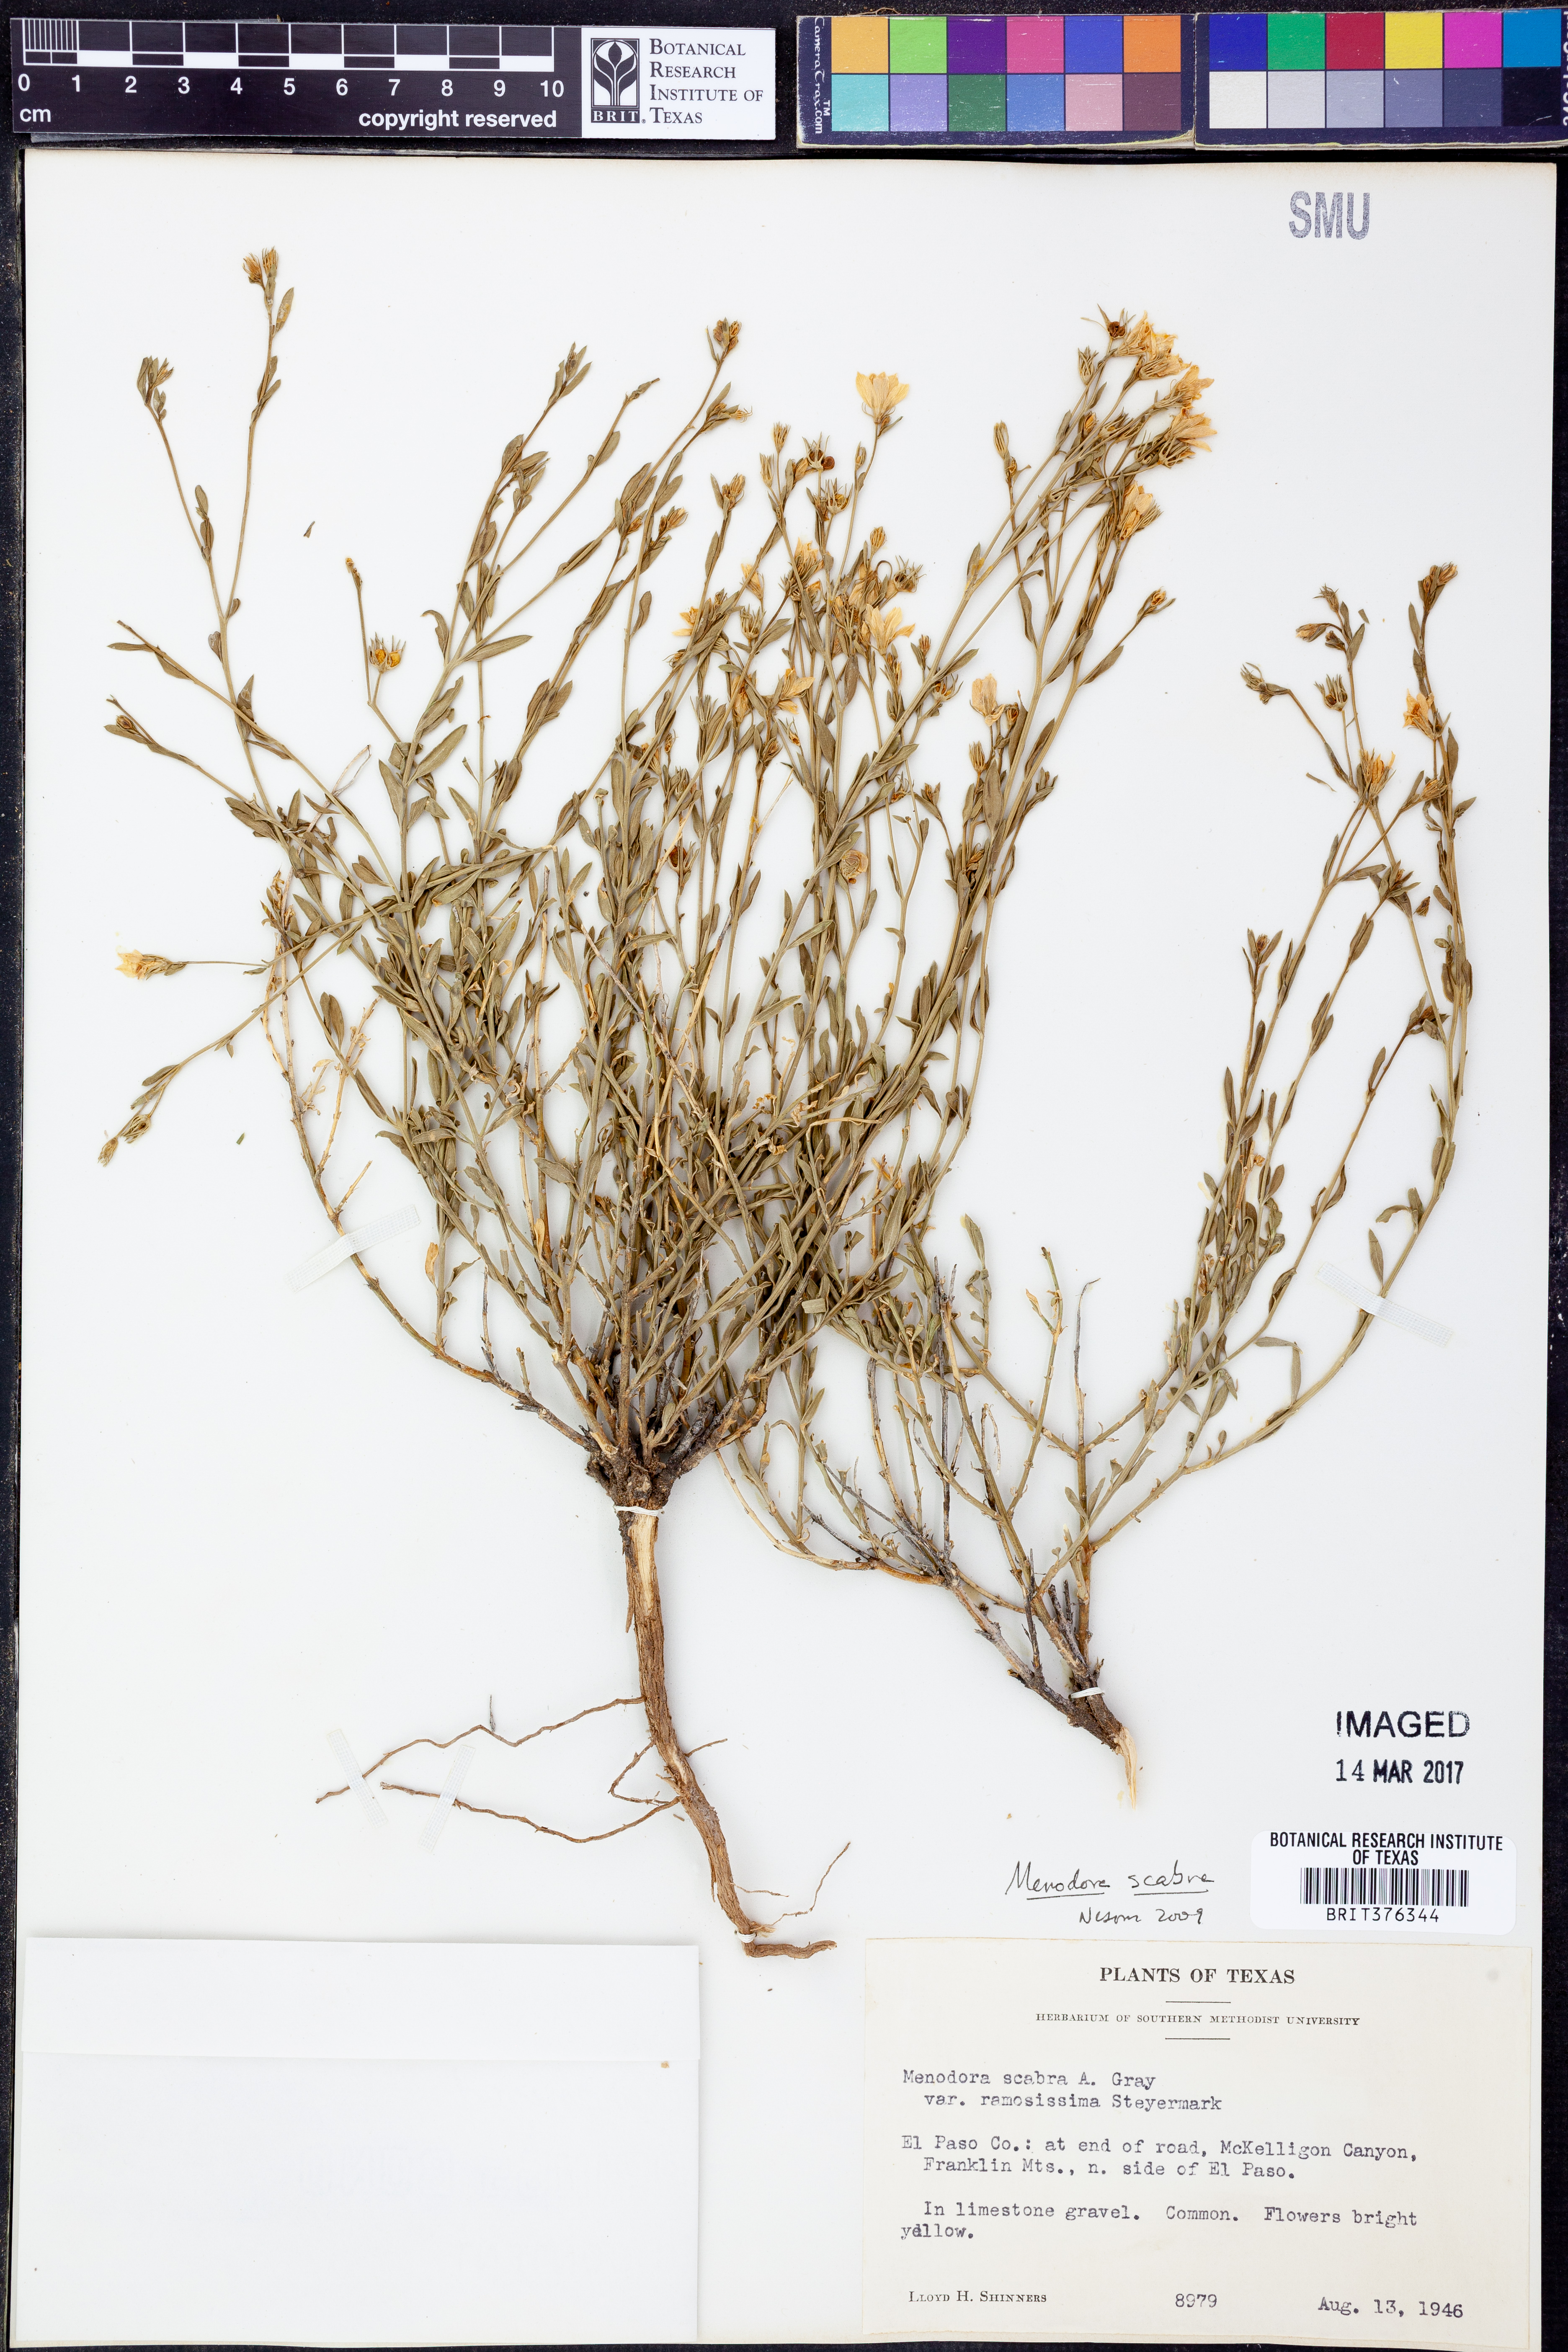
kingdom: Plantae
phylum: Tracheophyta
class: Magnoliopsida
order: Lamiales
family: Oleaceae
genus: Menodora
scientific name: Menodora scabra
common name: Rough menodora
